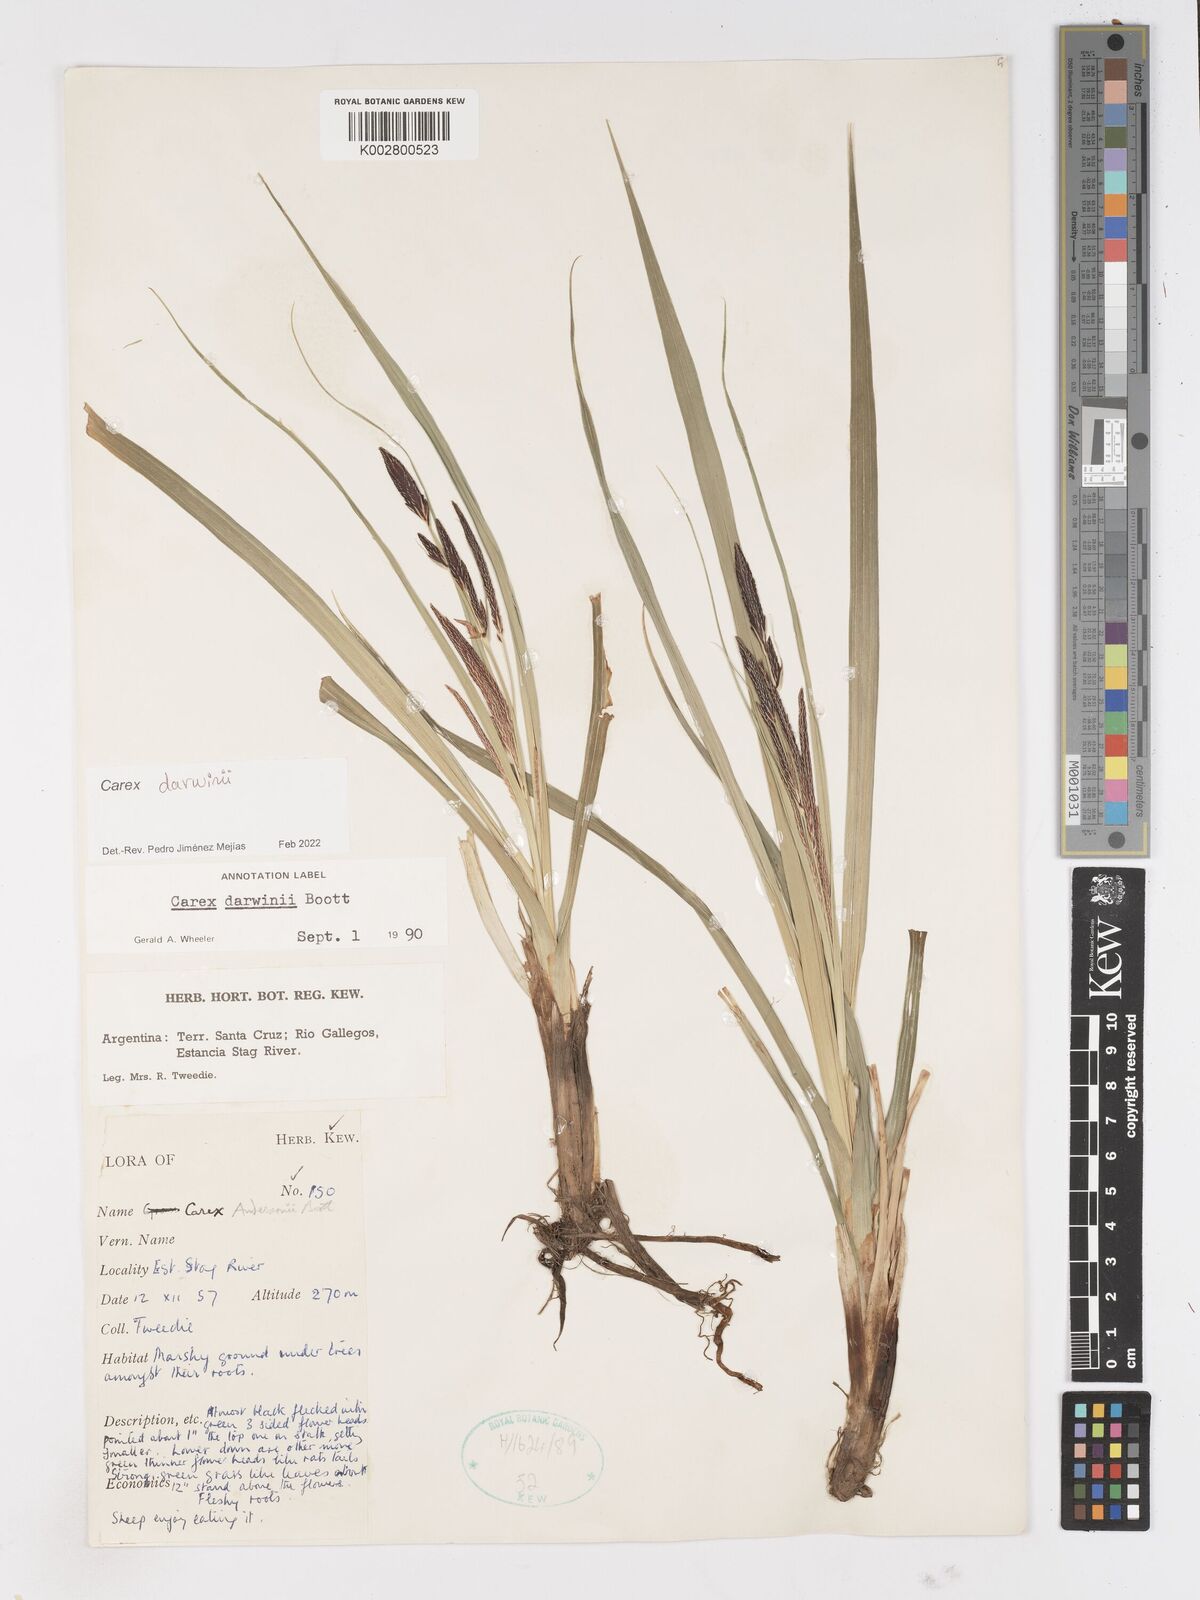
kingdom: Plantae
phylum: Tracheophyta
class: Liliopsida
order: Poales
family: Cyperaceae
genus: Carex
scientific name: Carex darwinii
